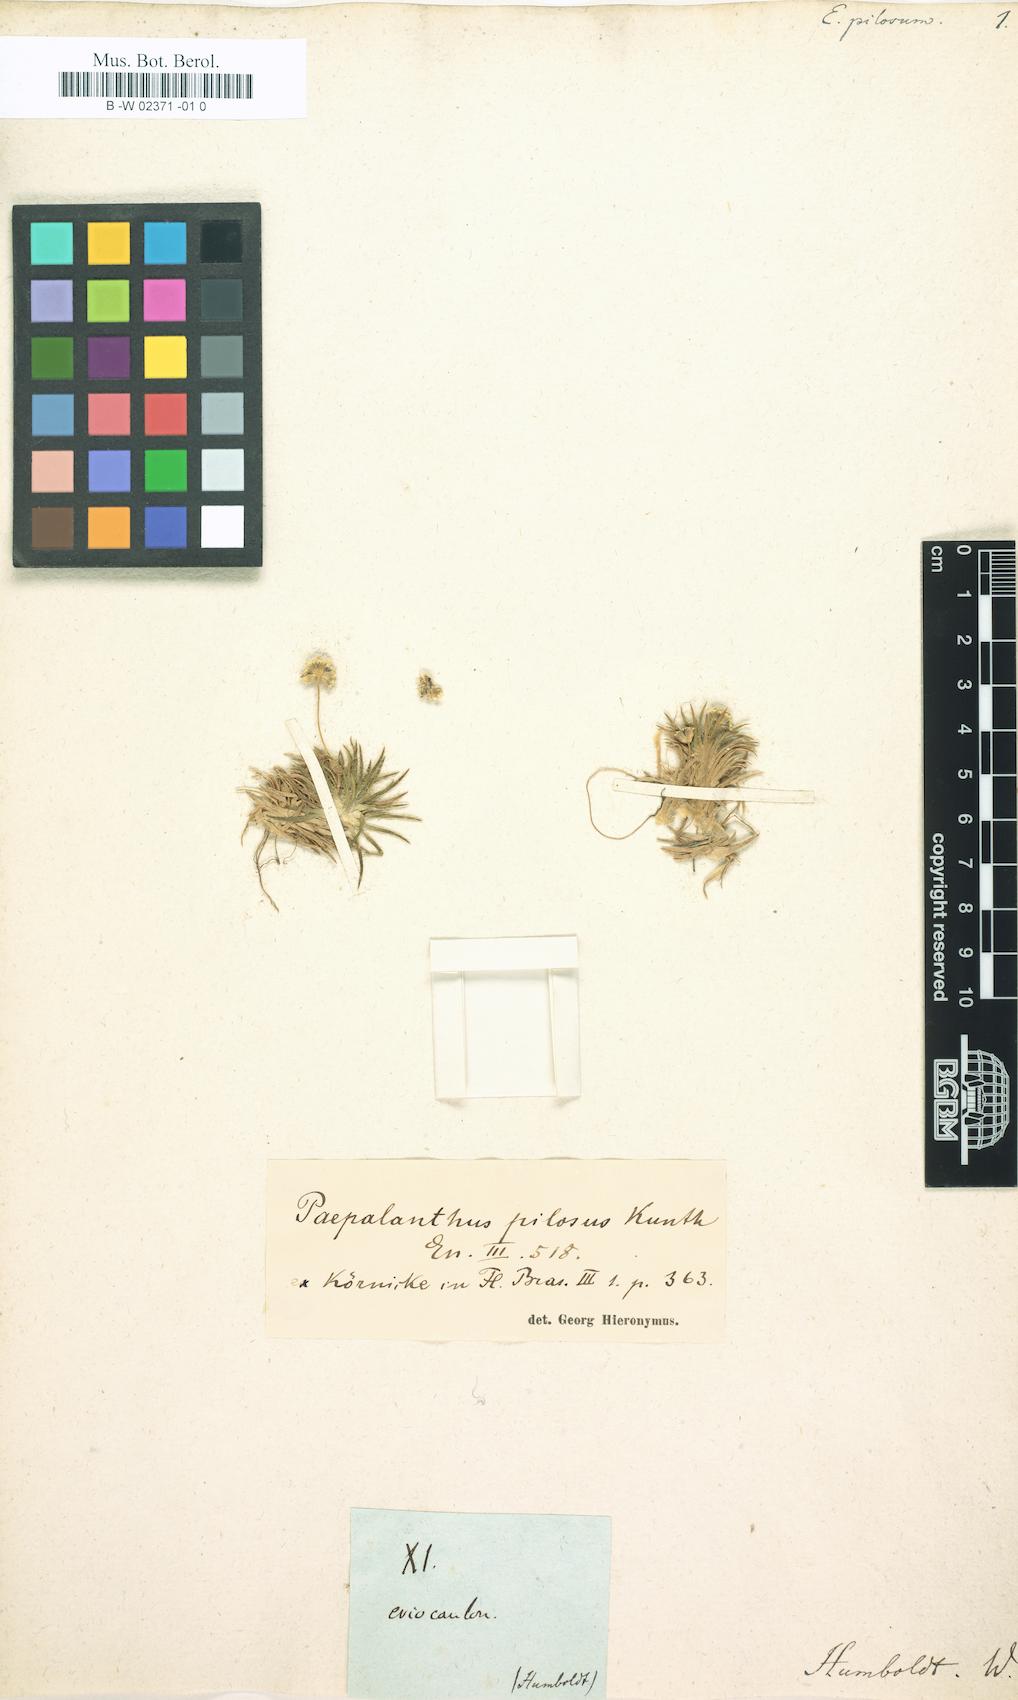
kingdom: Plantae
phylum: Tracheophyta
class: Liliopsida
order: Poales
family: Eriocaulaceae
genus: Paepalanthus
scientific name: Paepalanthus pilosus
